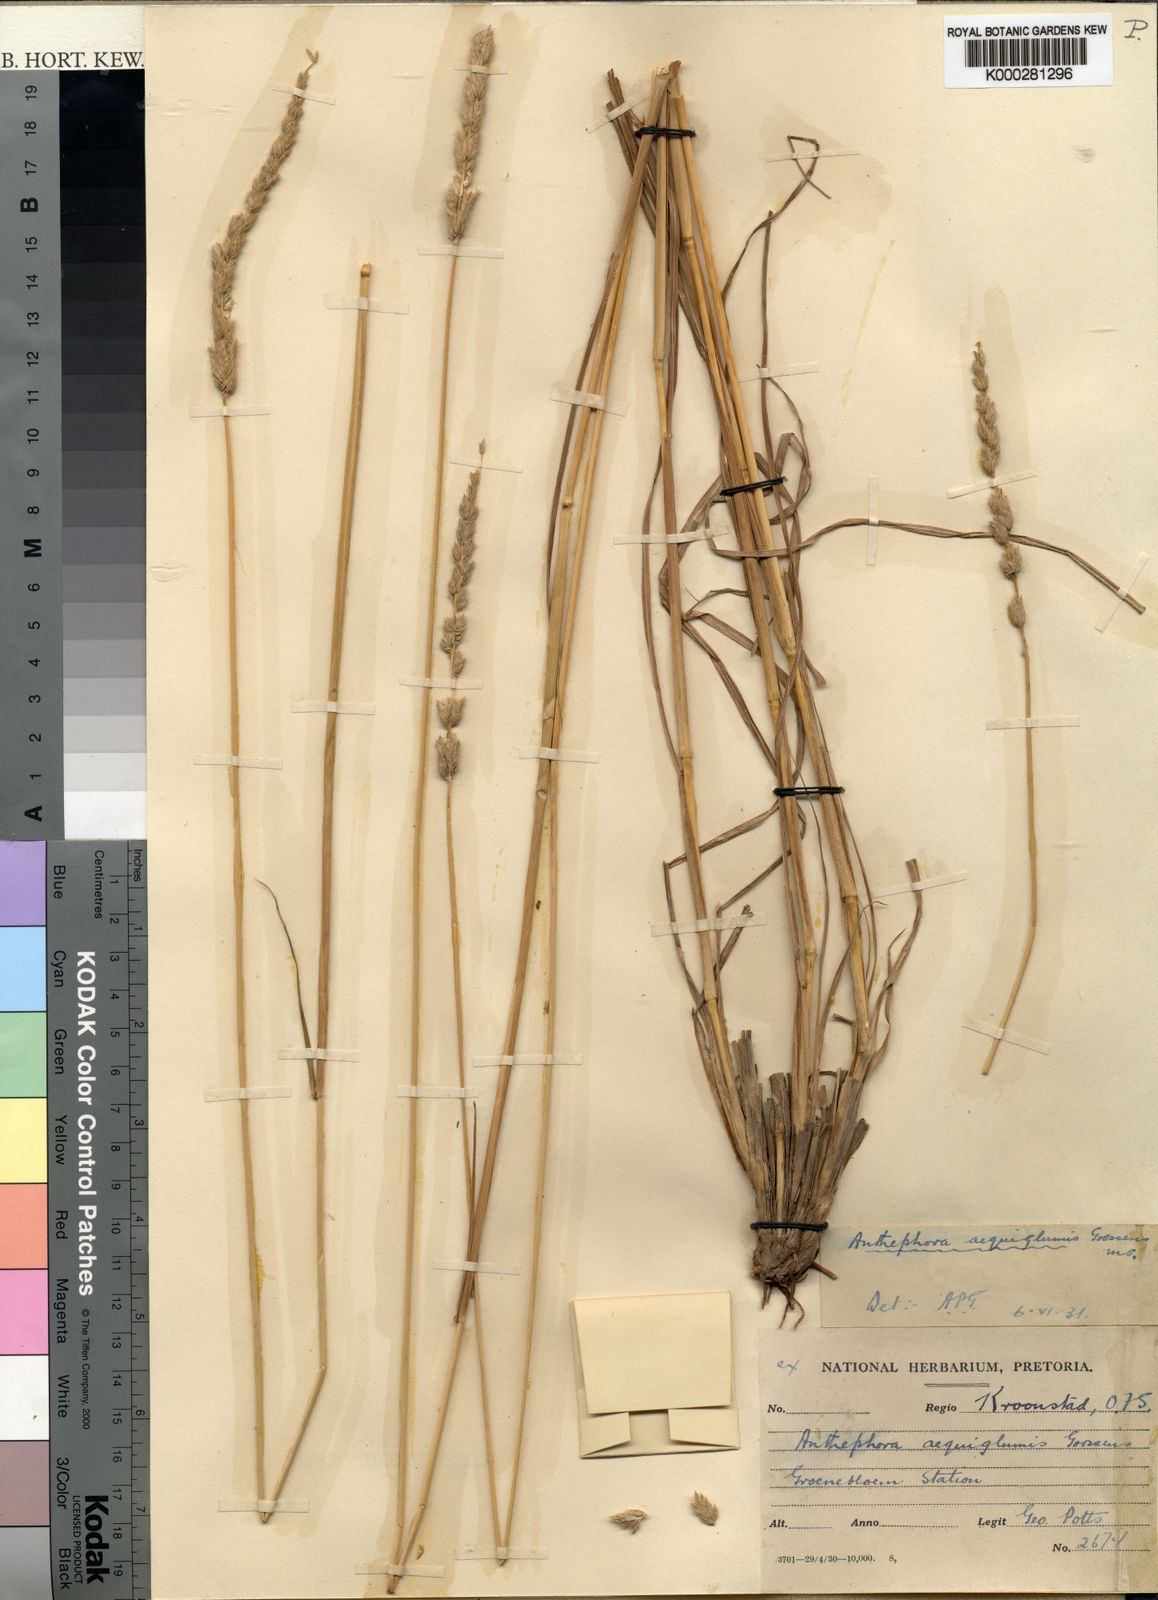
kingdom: Plantae
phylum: Tracheophyta
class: Liliopsida
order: Poales
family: Poaceae
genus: Tarigidia
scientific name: Tarigidia aequiglumis
